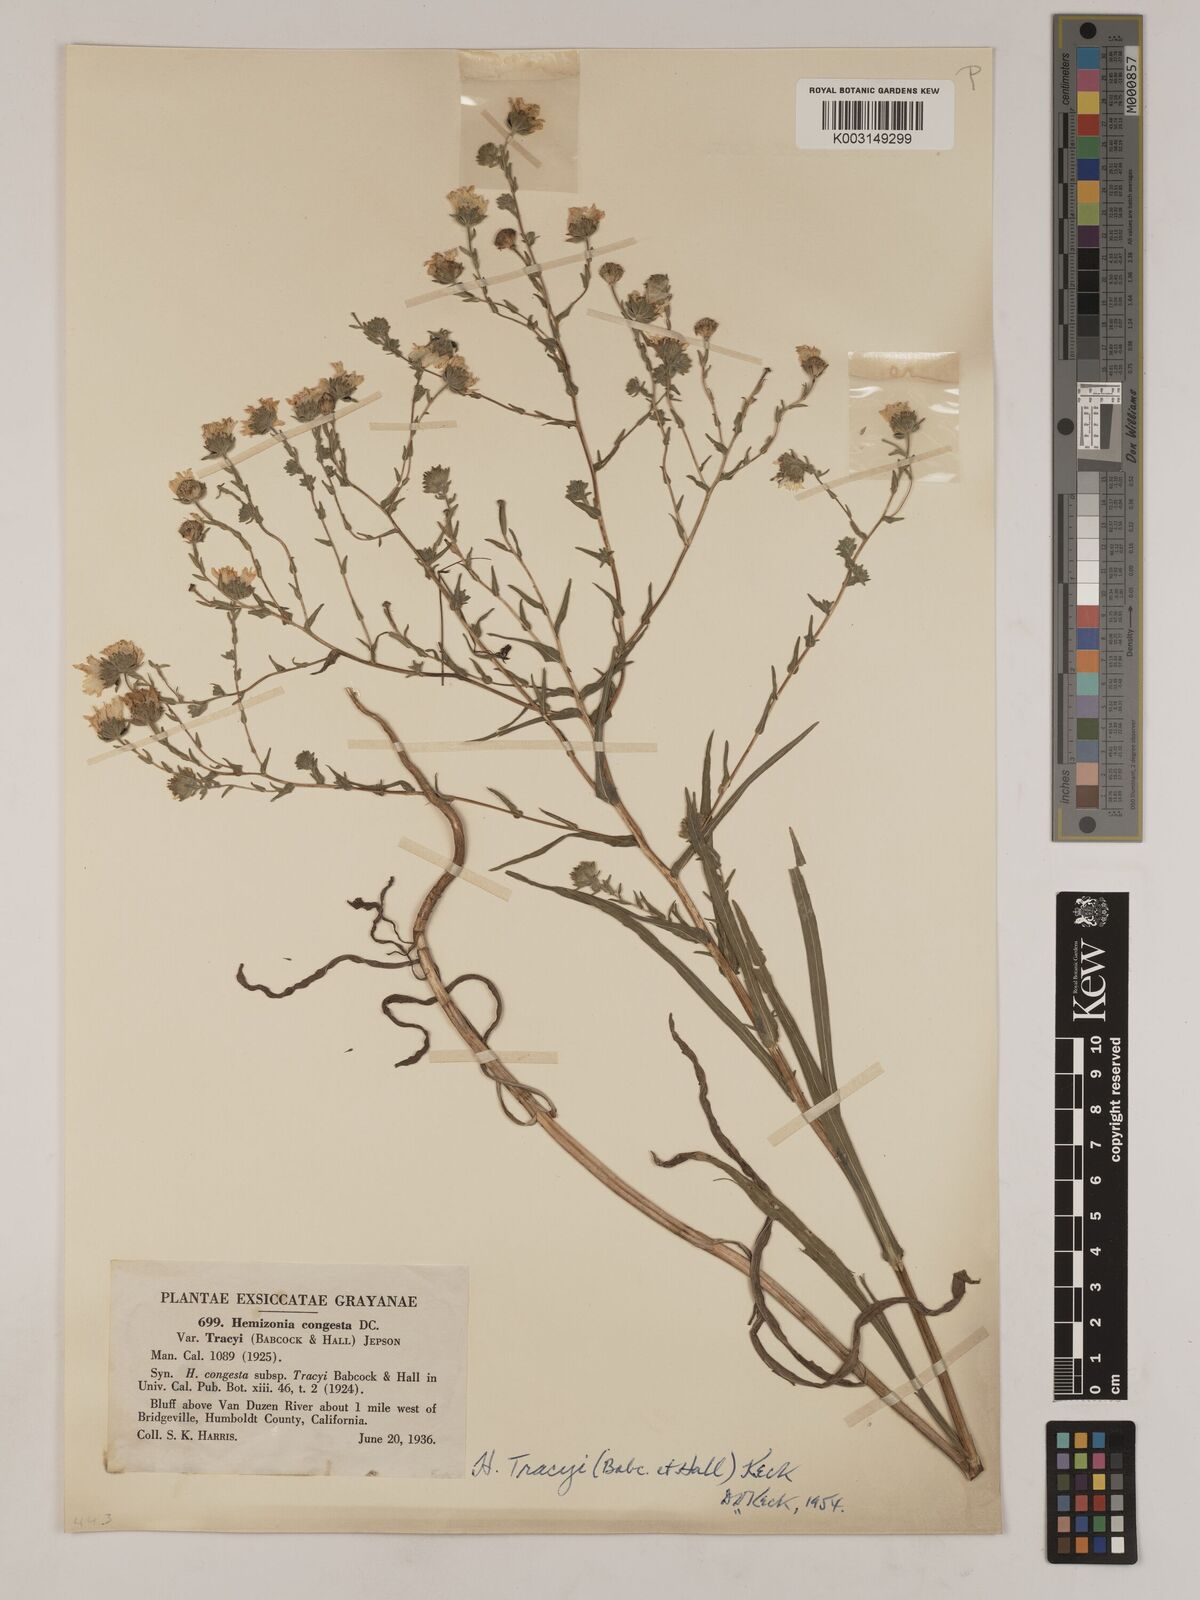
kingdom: Plantae
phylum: Tracheophyta
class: Magnoliopsida
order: Asterales
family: Asteraceae
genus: Hemizonia
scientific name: Hemizonia congesta
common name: Hayfield tarweed
